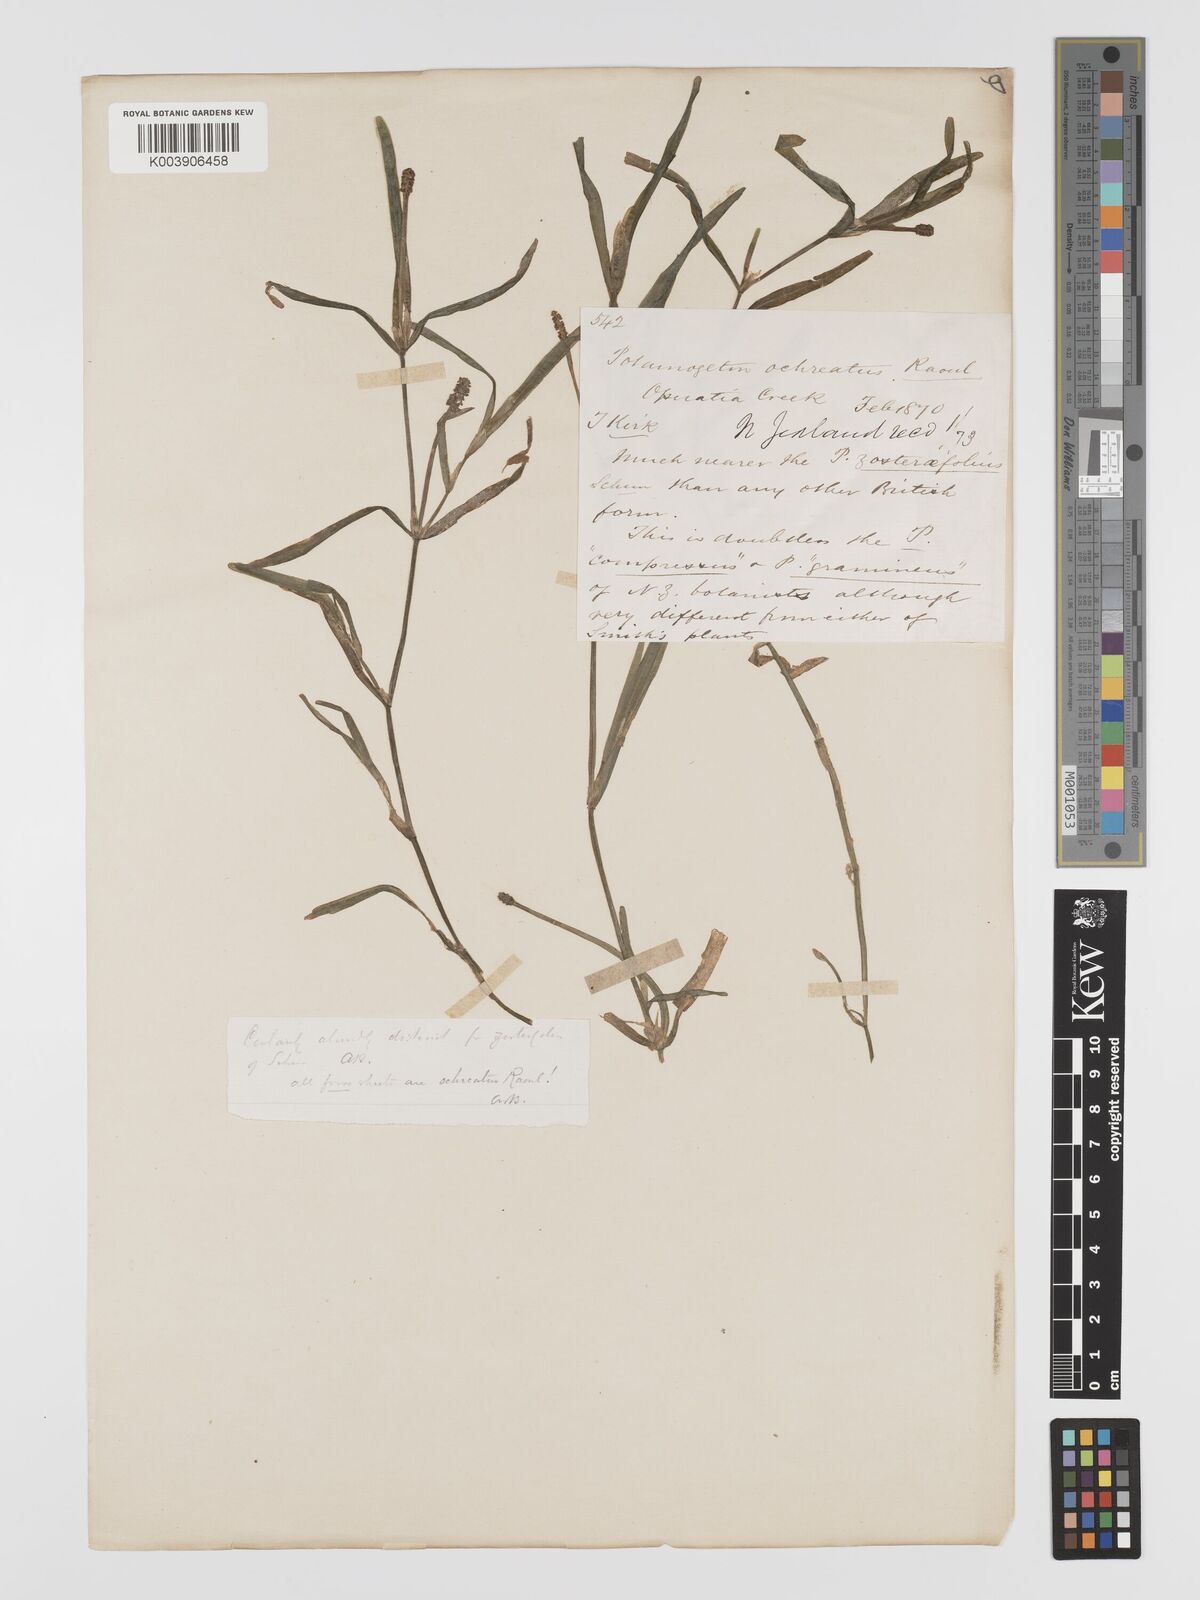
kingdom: Plantae
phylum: Tracheophyta
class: Liliopsida
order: Alismatales
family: Potamogetonaceae
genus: Potamogeton
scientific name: Potamogeton ochreatus
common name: Blunt pondweed
